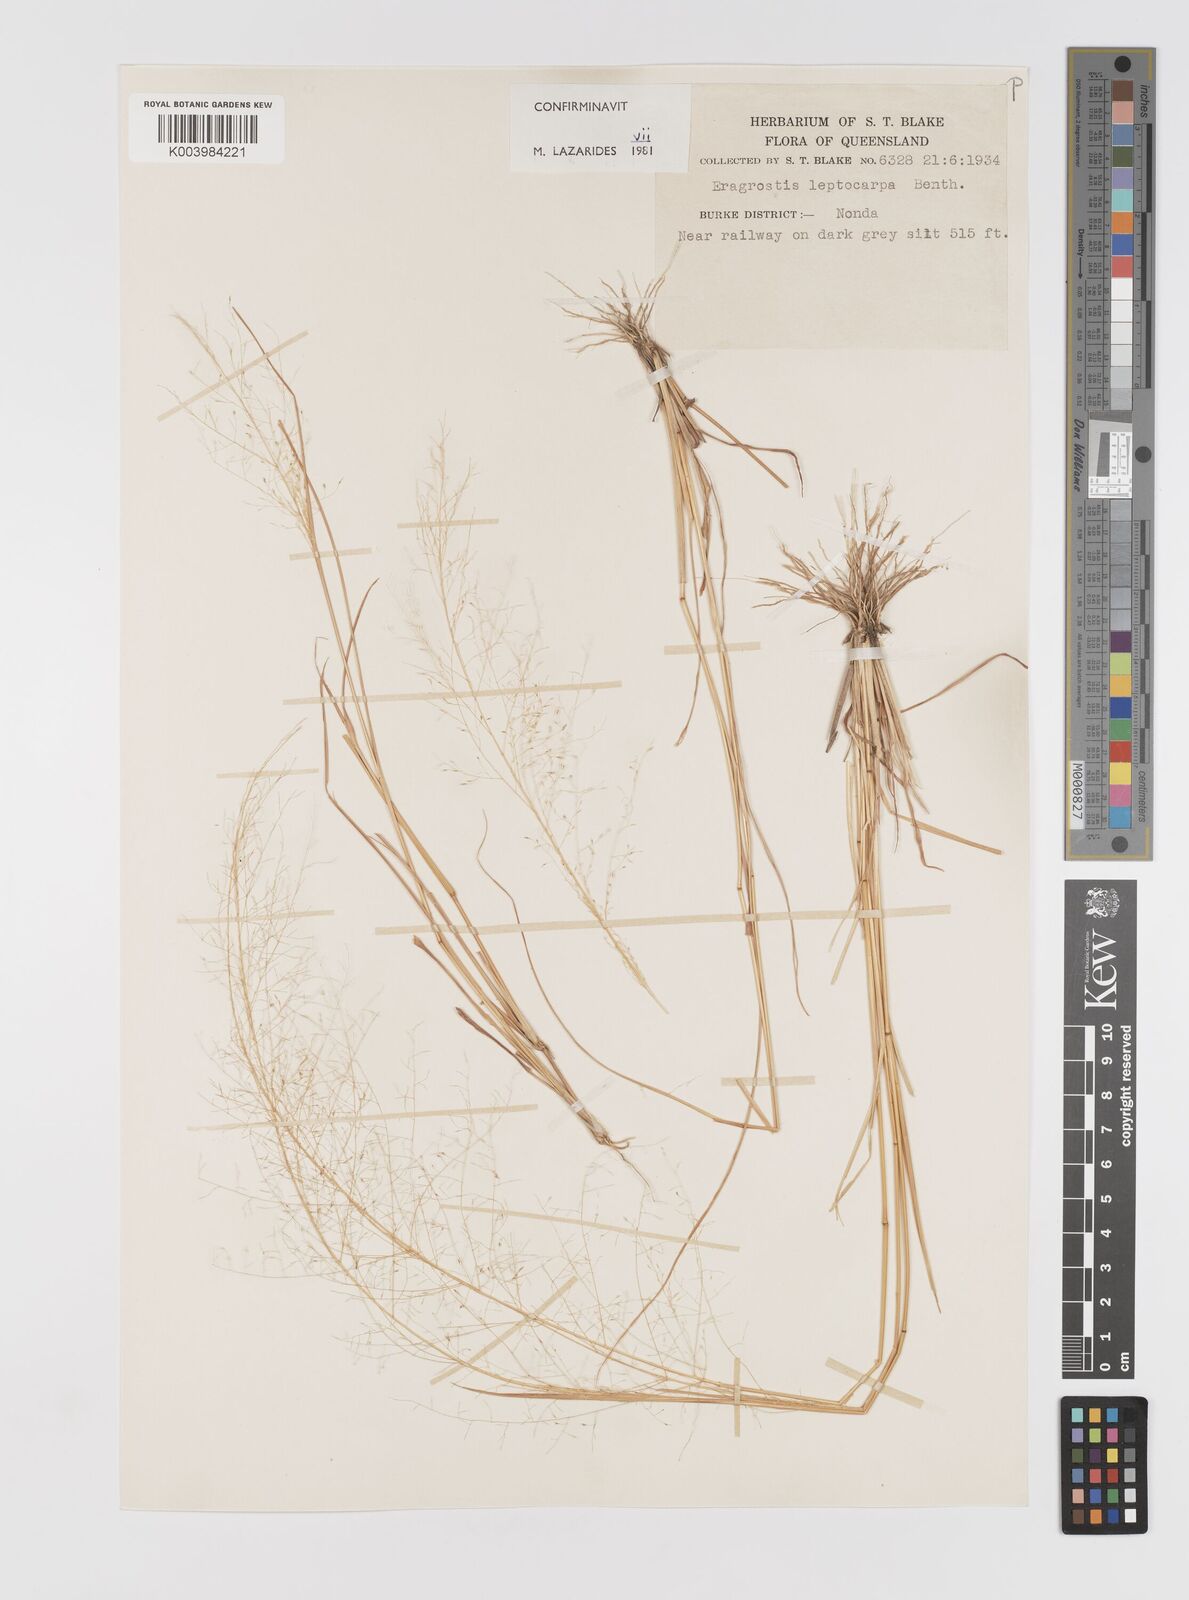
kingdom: Plantae
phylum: Tracheophyta
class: Liliopsida
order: Poales
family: Poaceae
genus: Eragrostis
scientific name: Eragrostis leptocarpa
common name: Drooping love grass
